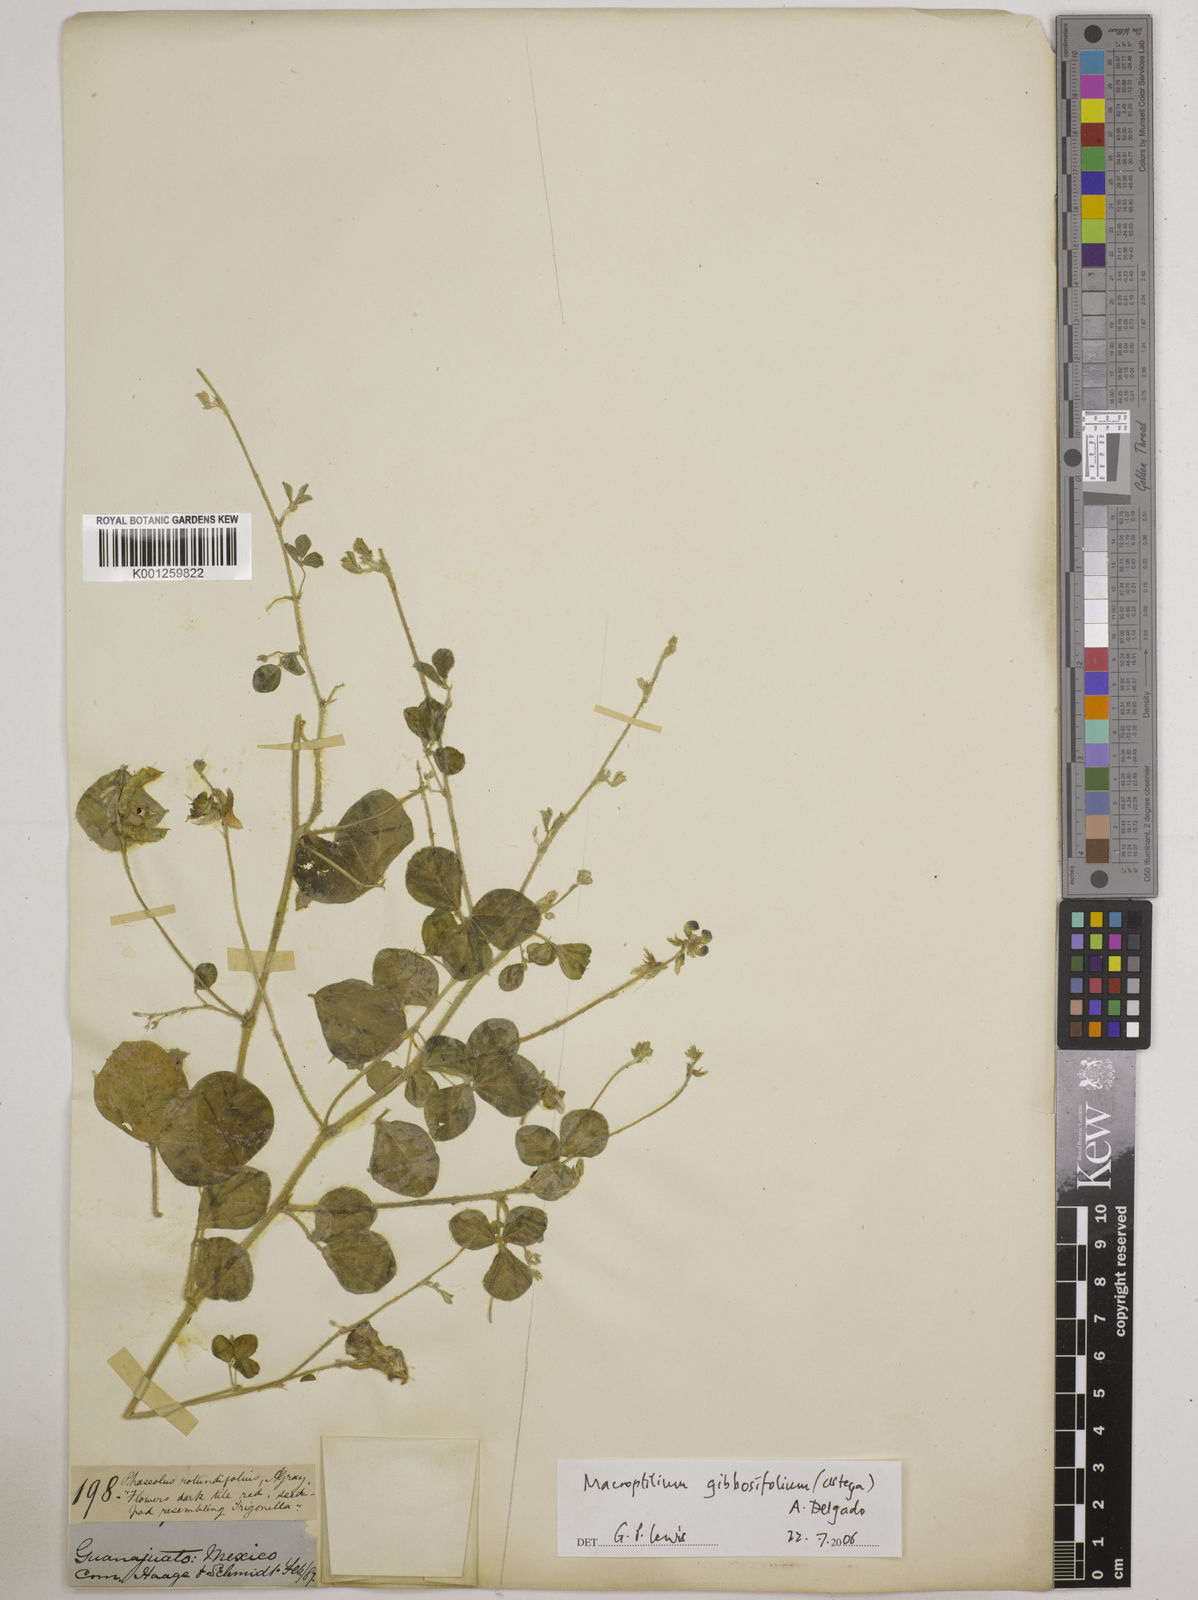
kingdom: Plantae
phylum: Tracheophyta
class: Magnoliopsida
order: Fabales
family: Fabaceae
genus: Macroptilium
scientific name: Macroptilium gibbosifolium
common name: Variableleaf bushbean
